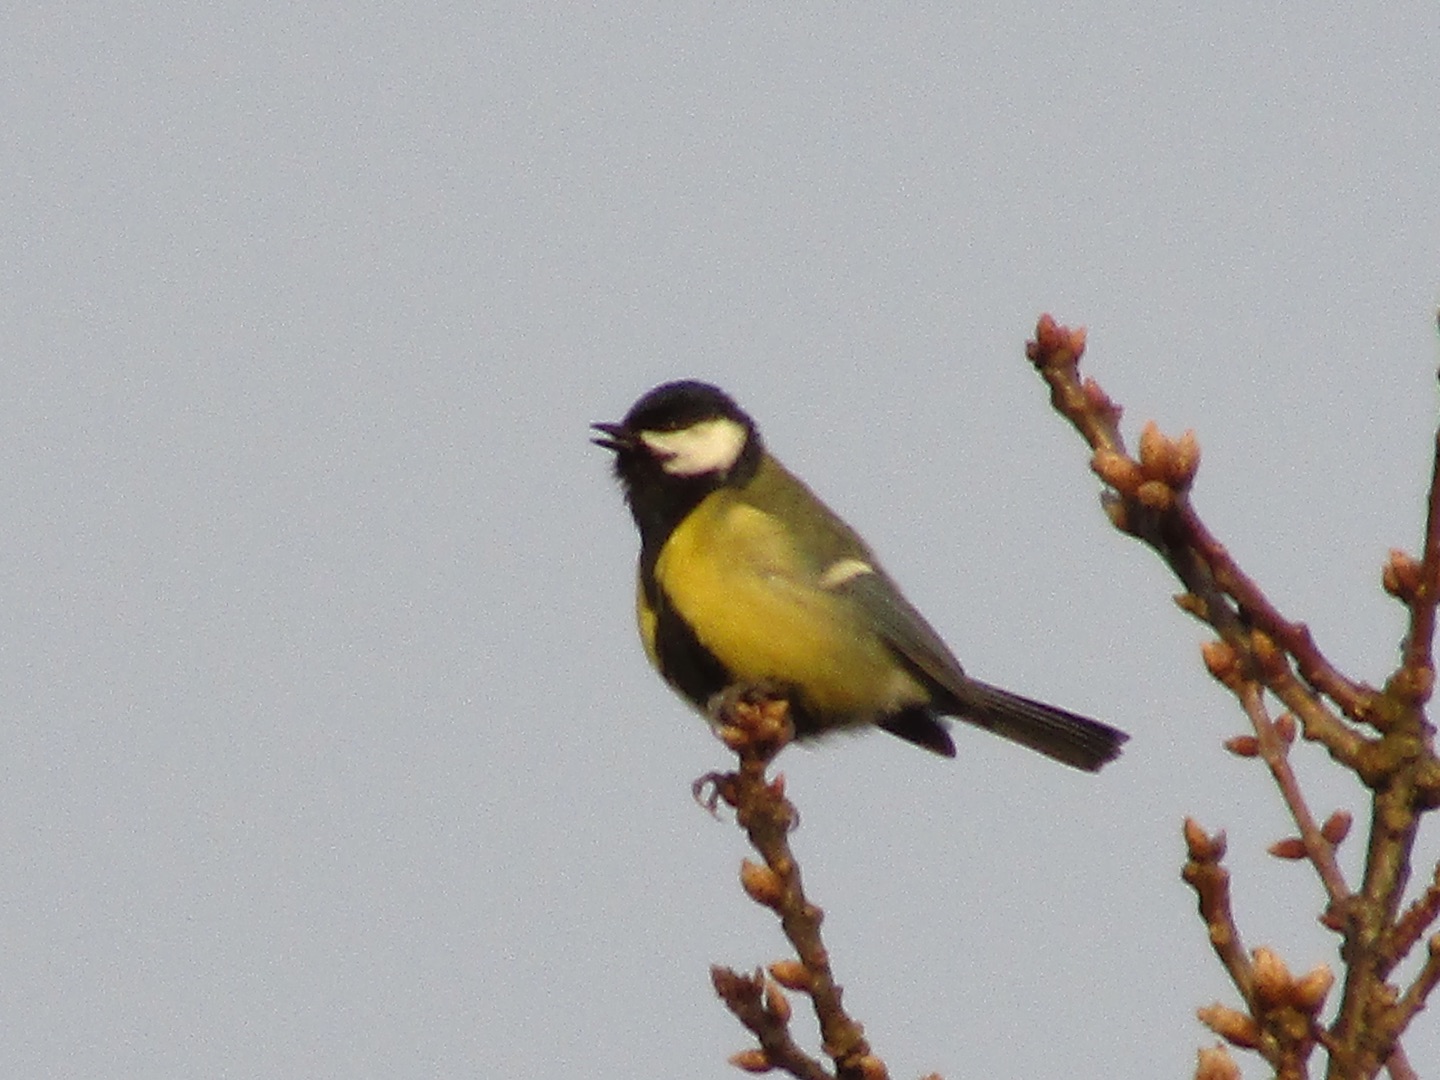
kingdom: Animalia
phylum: Chordata
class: Aves
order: Passeriformes
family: Paridae
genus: Parus
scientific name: Parus major
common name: Musvit
